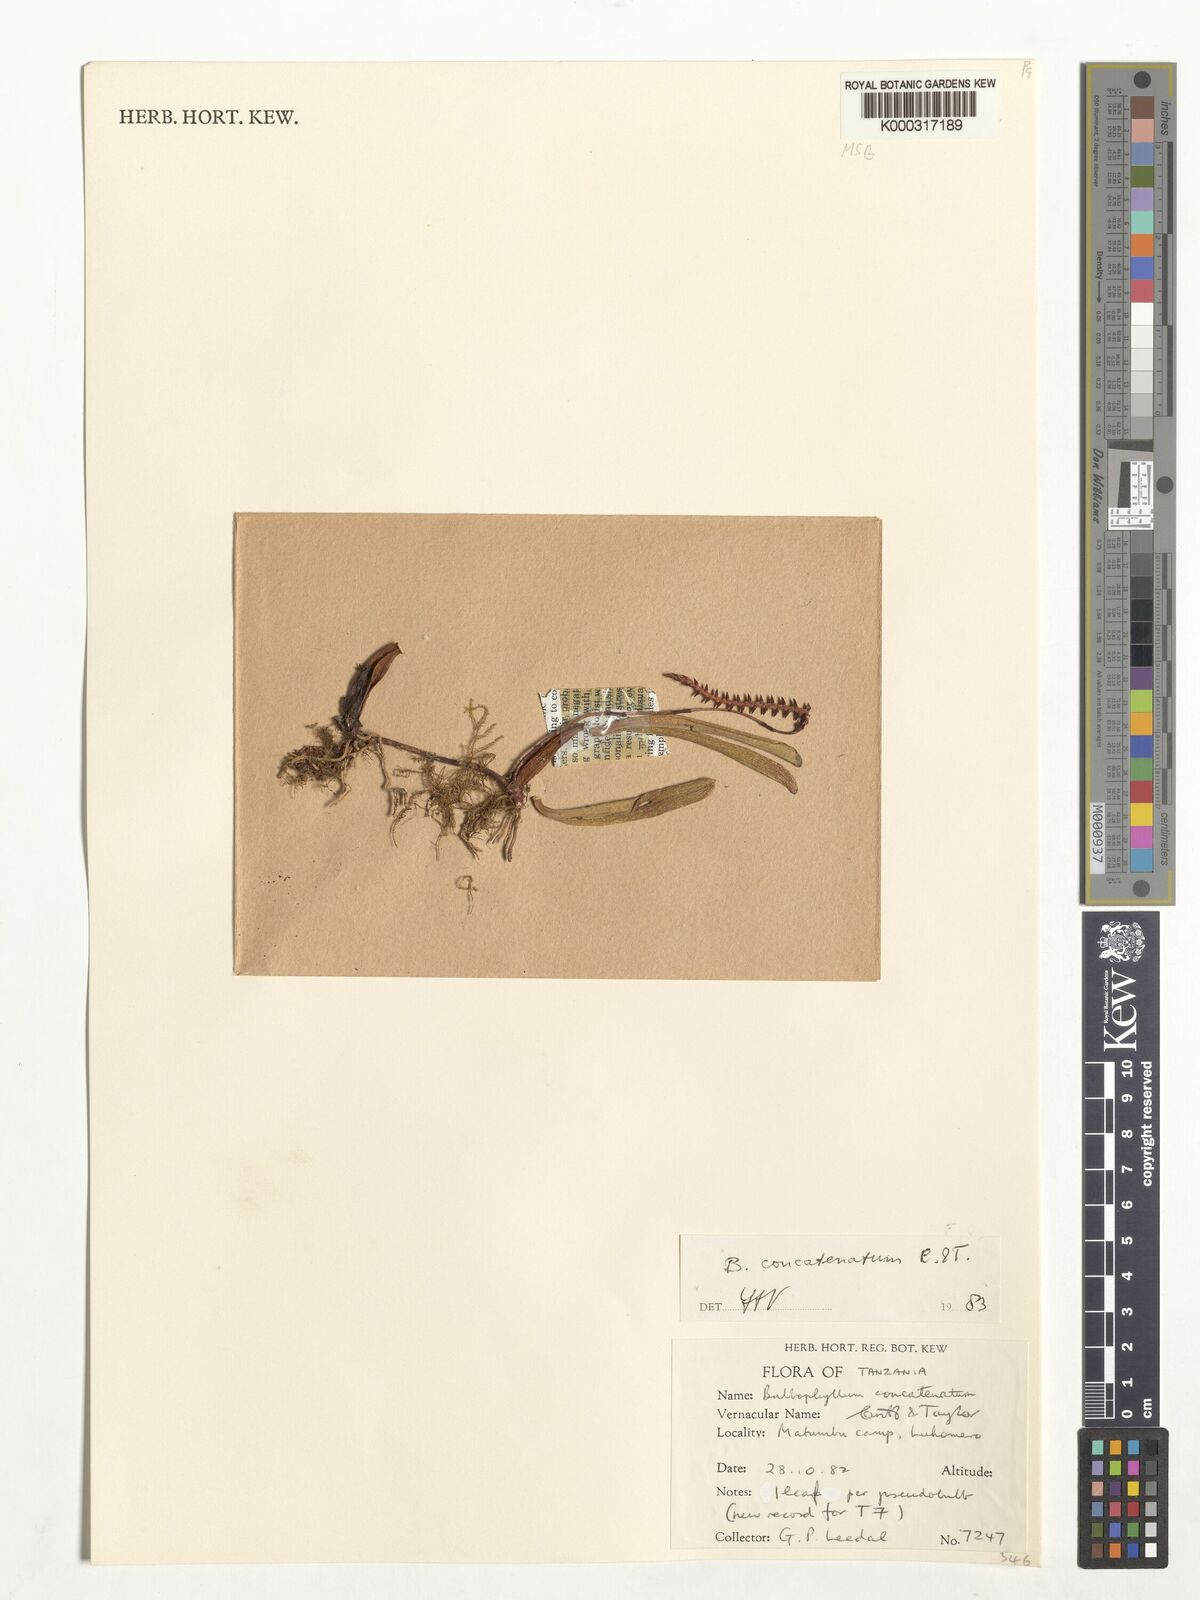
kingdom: Plantae
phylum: Tracheophyta
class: Liliopsida
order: Asparagales
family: Orchidaceae
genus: Bulbophyllum
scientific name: Bulbophyllum concatenatum
